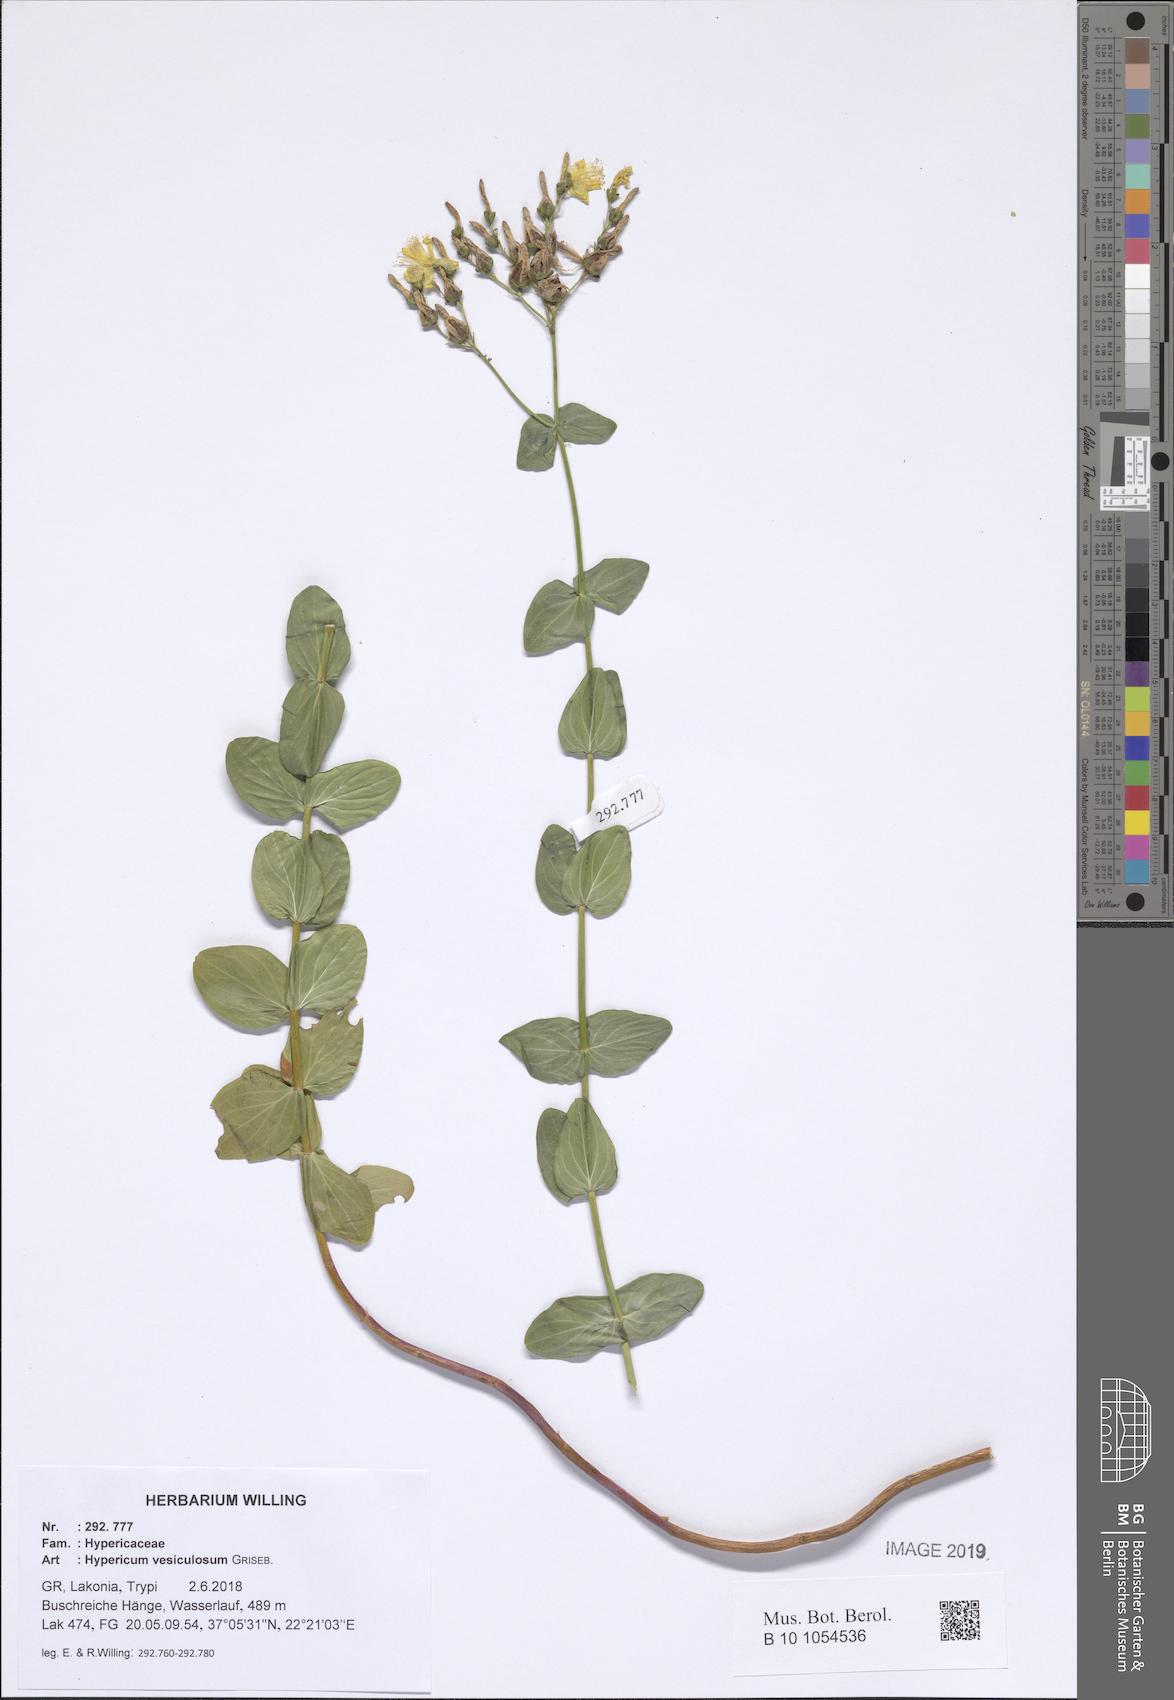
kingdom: Plantae
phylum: Tracheophyta
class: Magnoliopsida
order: Malpighiales
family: Hypericaceae
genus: Hypericum
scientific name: Hypericum vesiculosum
